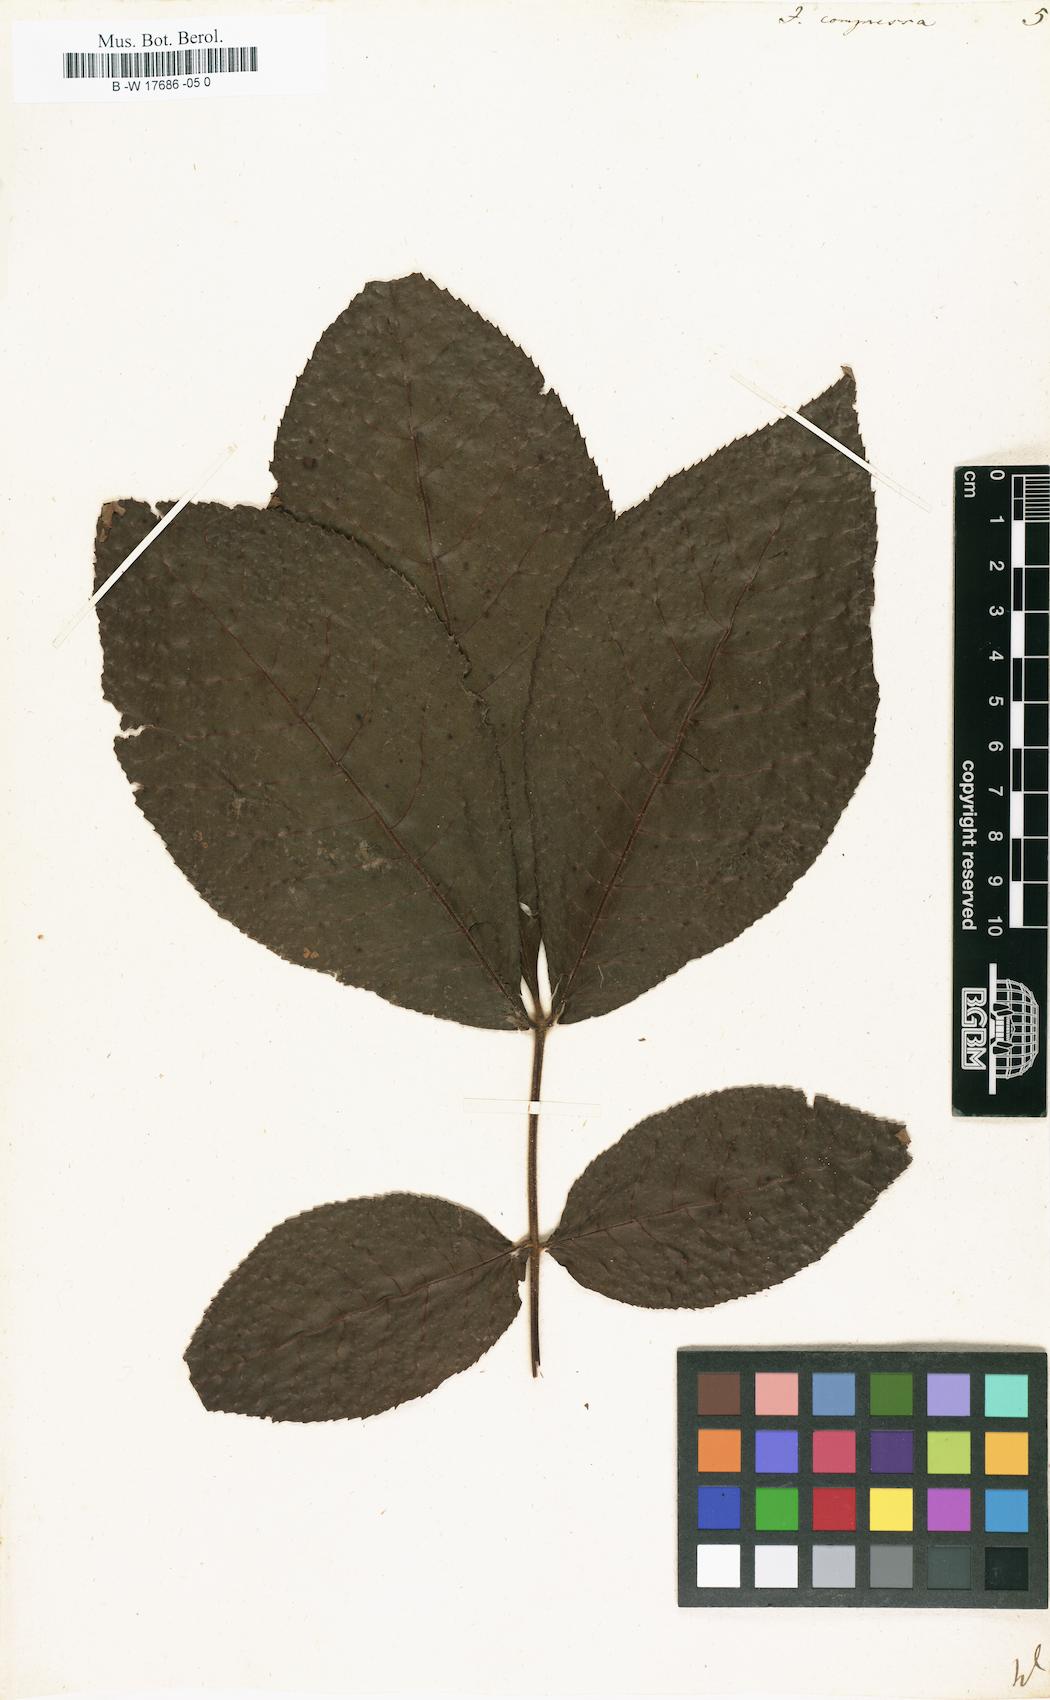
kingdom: Plantae
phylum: Tracheophyta
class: Magnoliopsida
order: Fagales
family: Juglandaceae
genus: Carya
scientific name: Carya cordiformis
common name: Bitternut hickory
